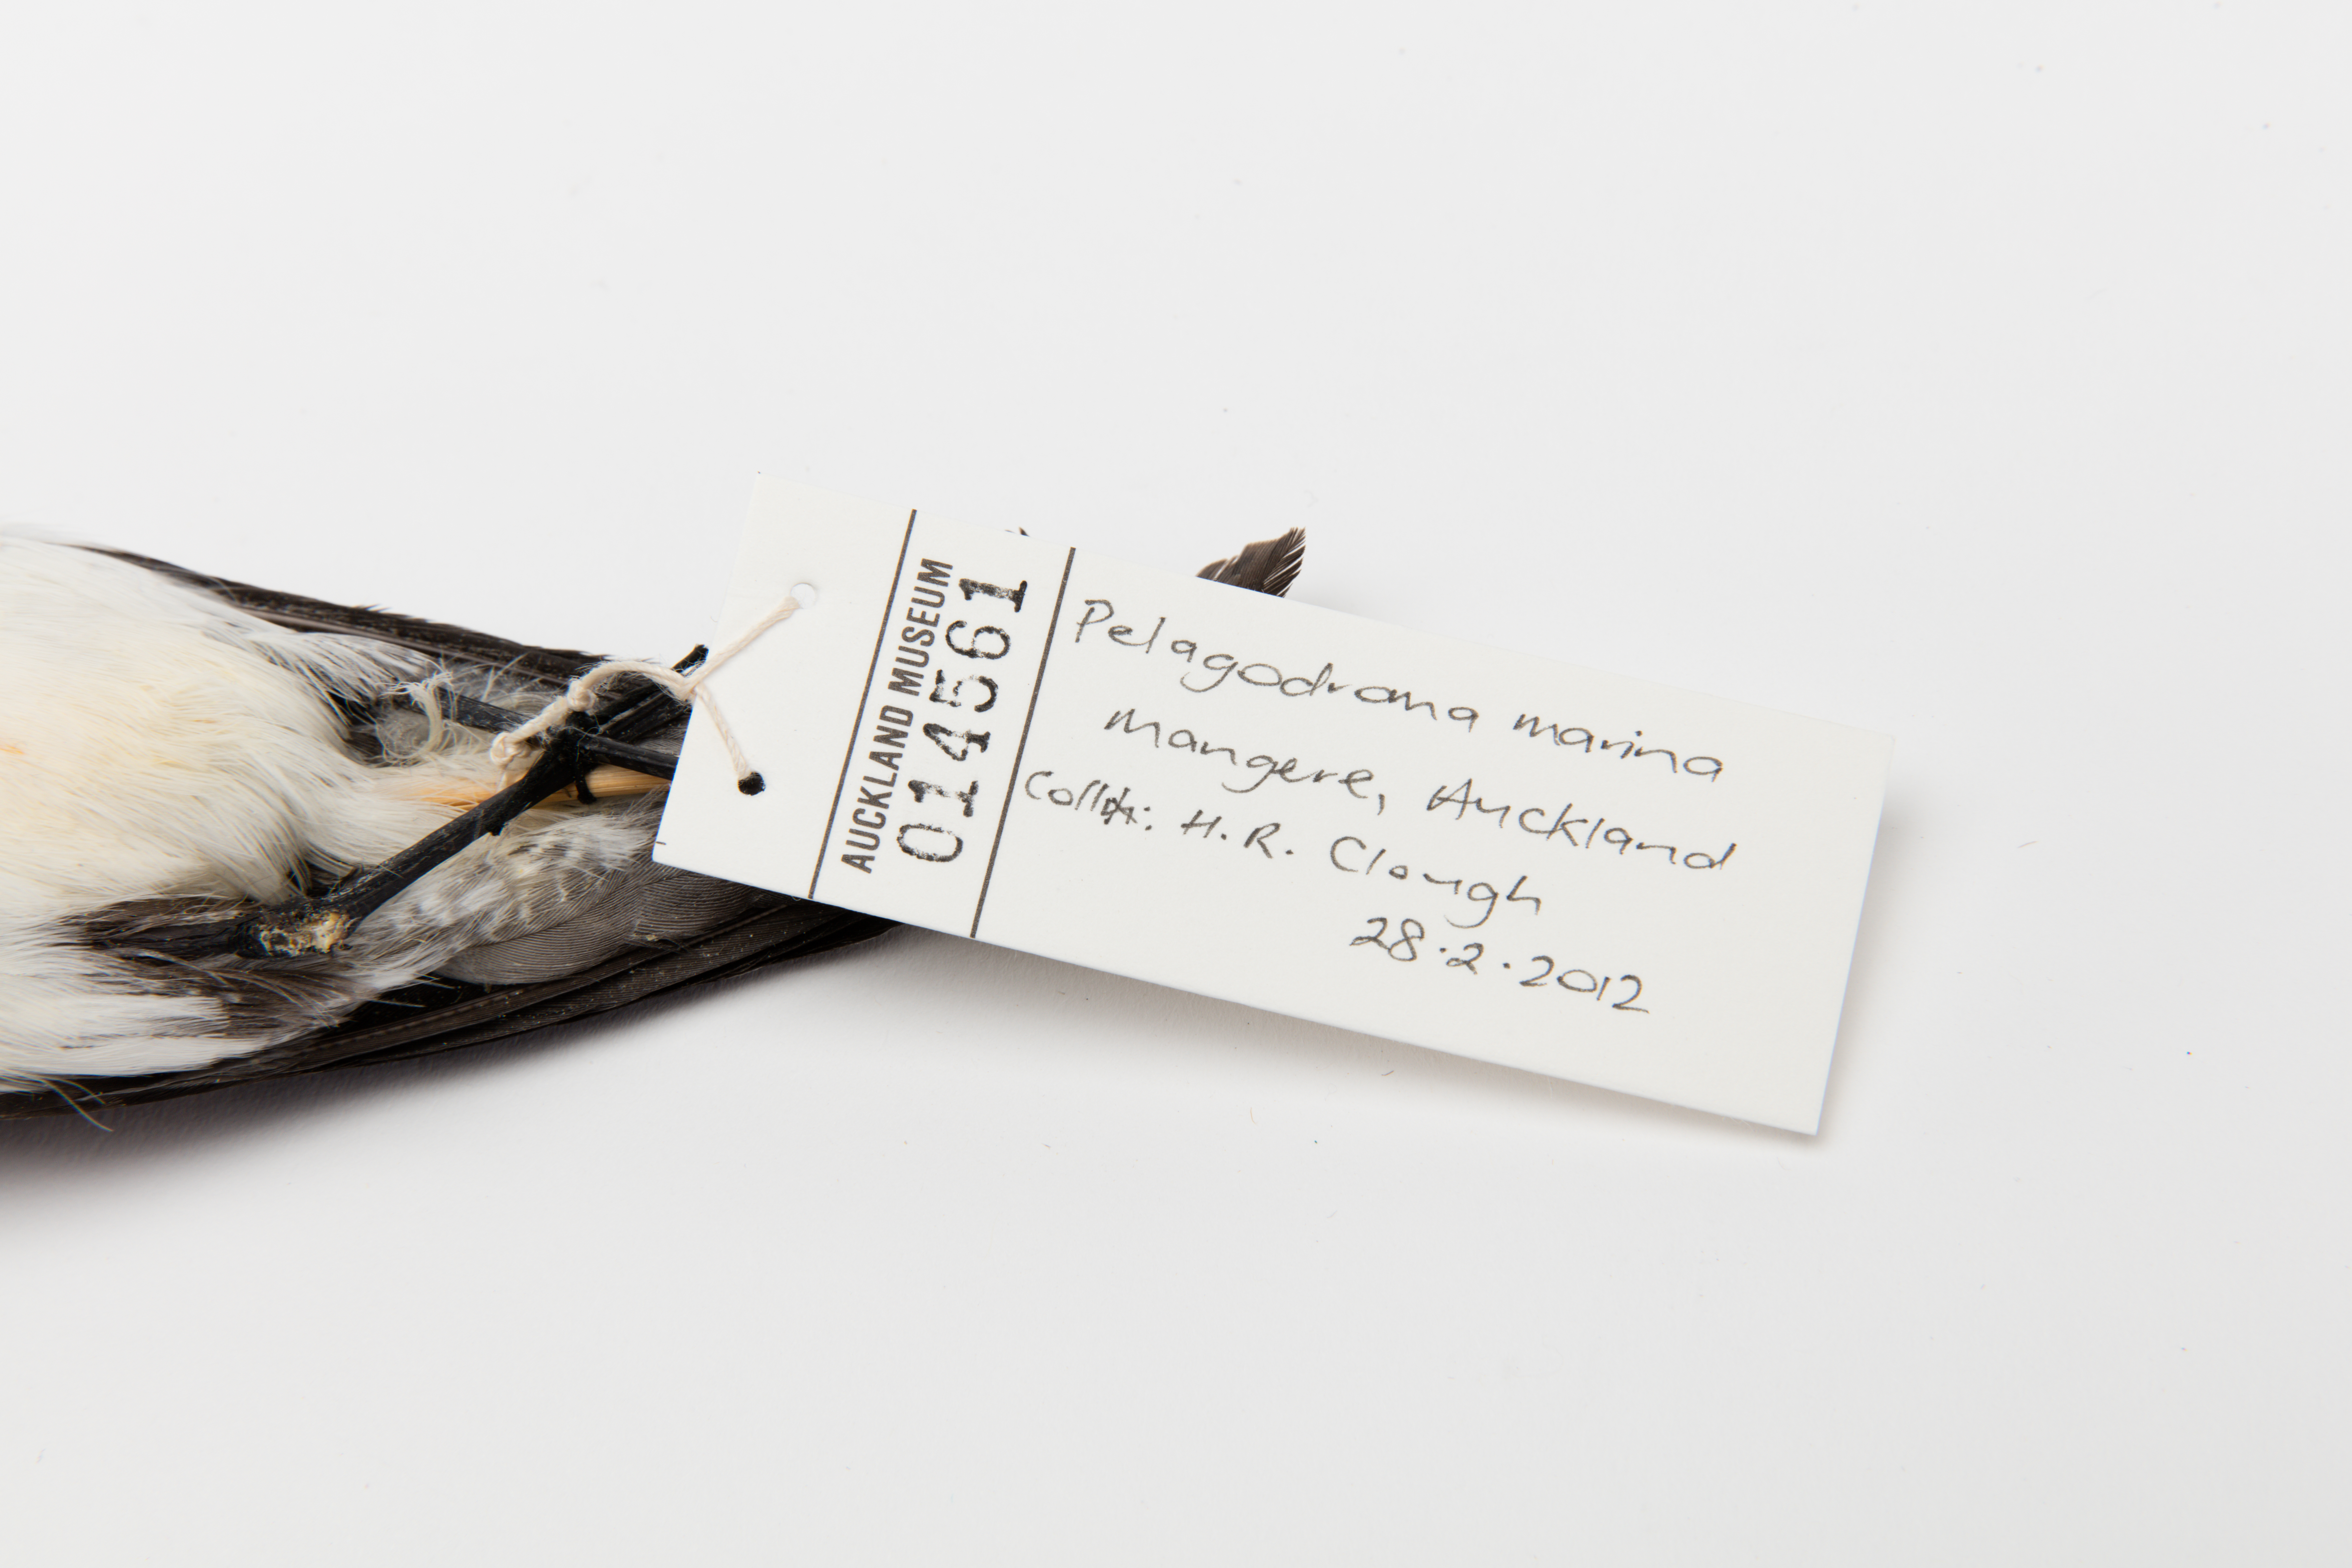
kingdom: Animalia
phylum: Chordata
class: Aves
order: Procellariiformes
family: Hydrobatidae
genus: Pelagodroma
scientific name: Pelagodroma marina
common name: White-faced storm-petrel
